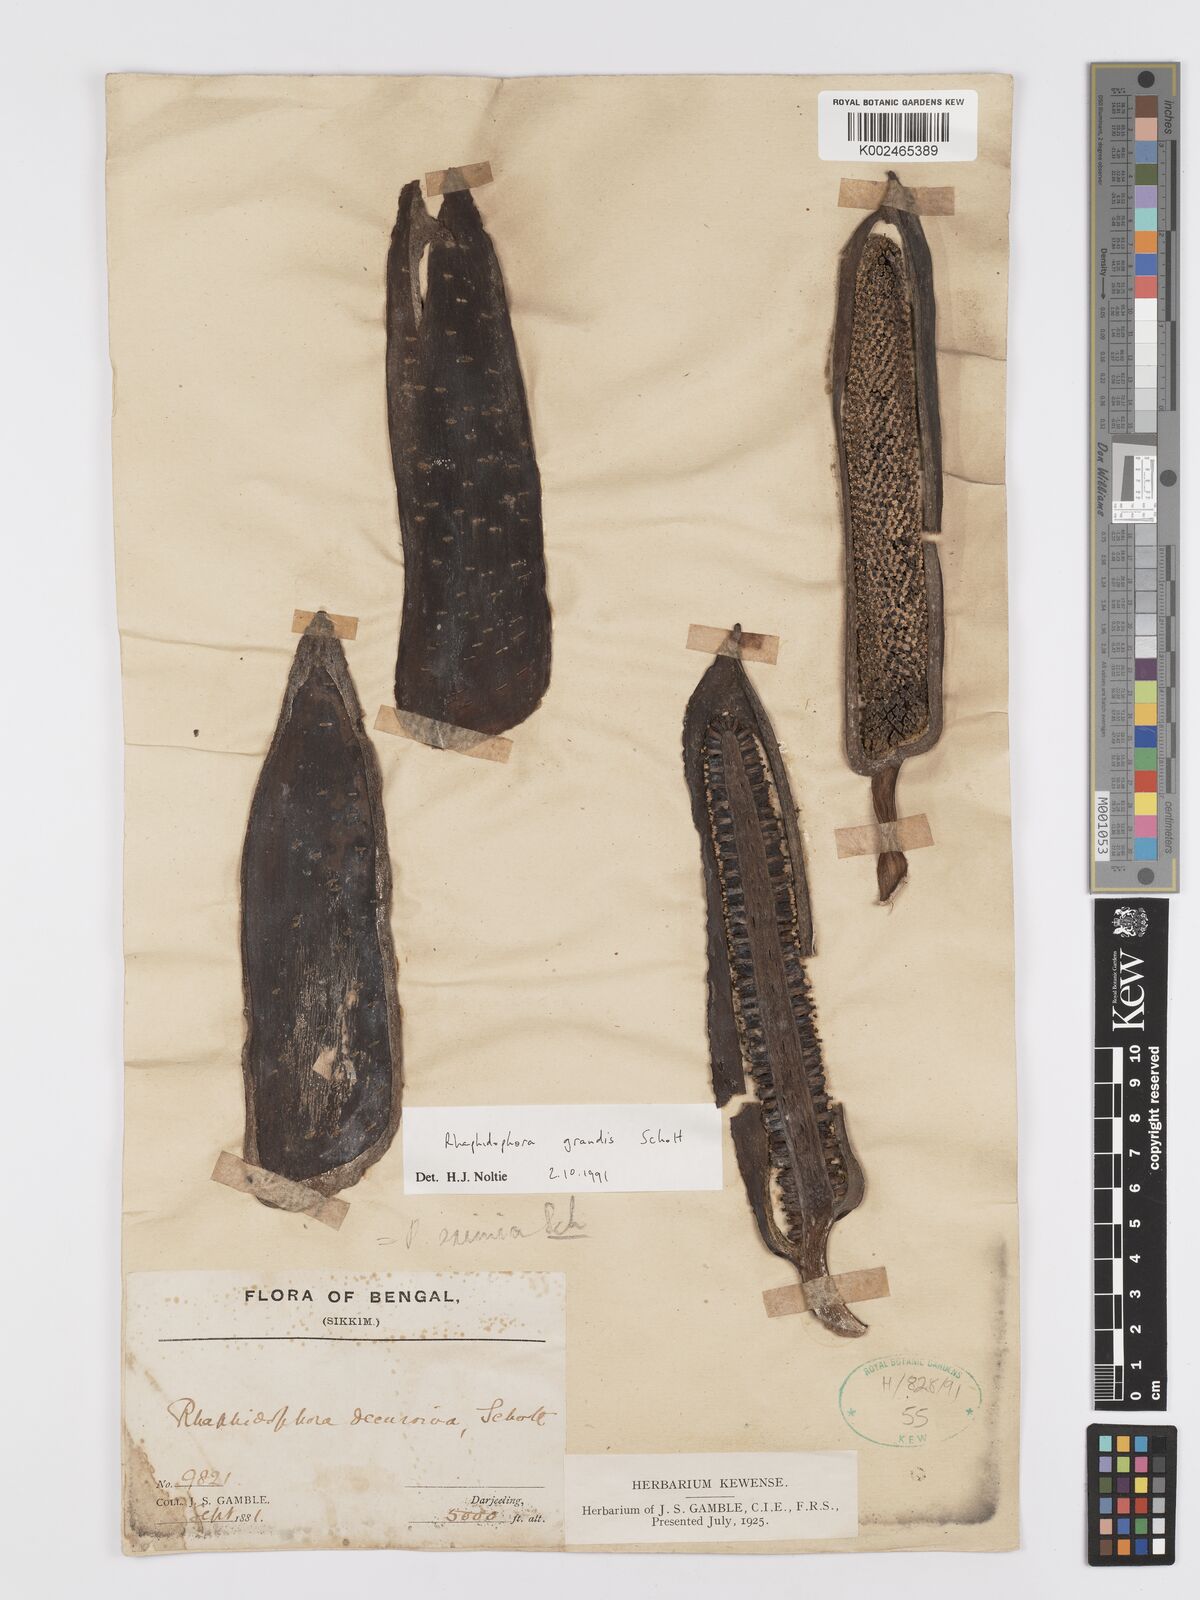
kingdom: Plantae
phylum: Tracheophyta
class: Liliopsida
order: Alismatales
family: Araceae
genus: Rhaphidophora
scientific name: Rhaphidophora decursiva
